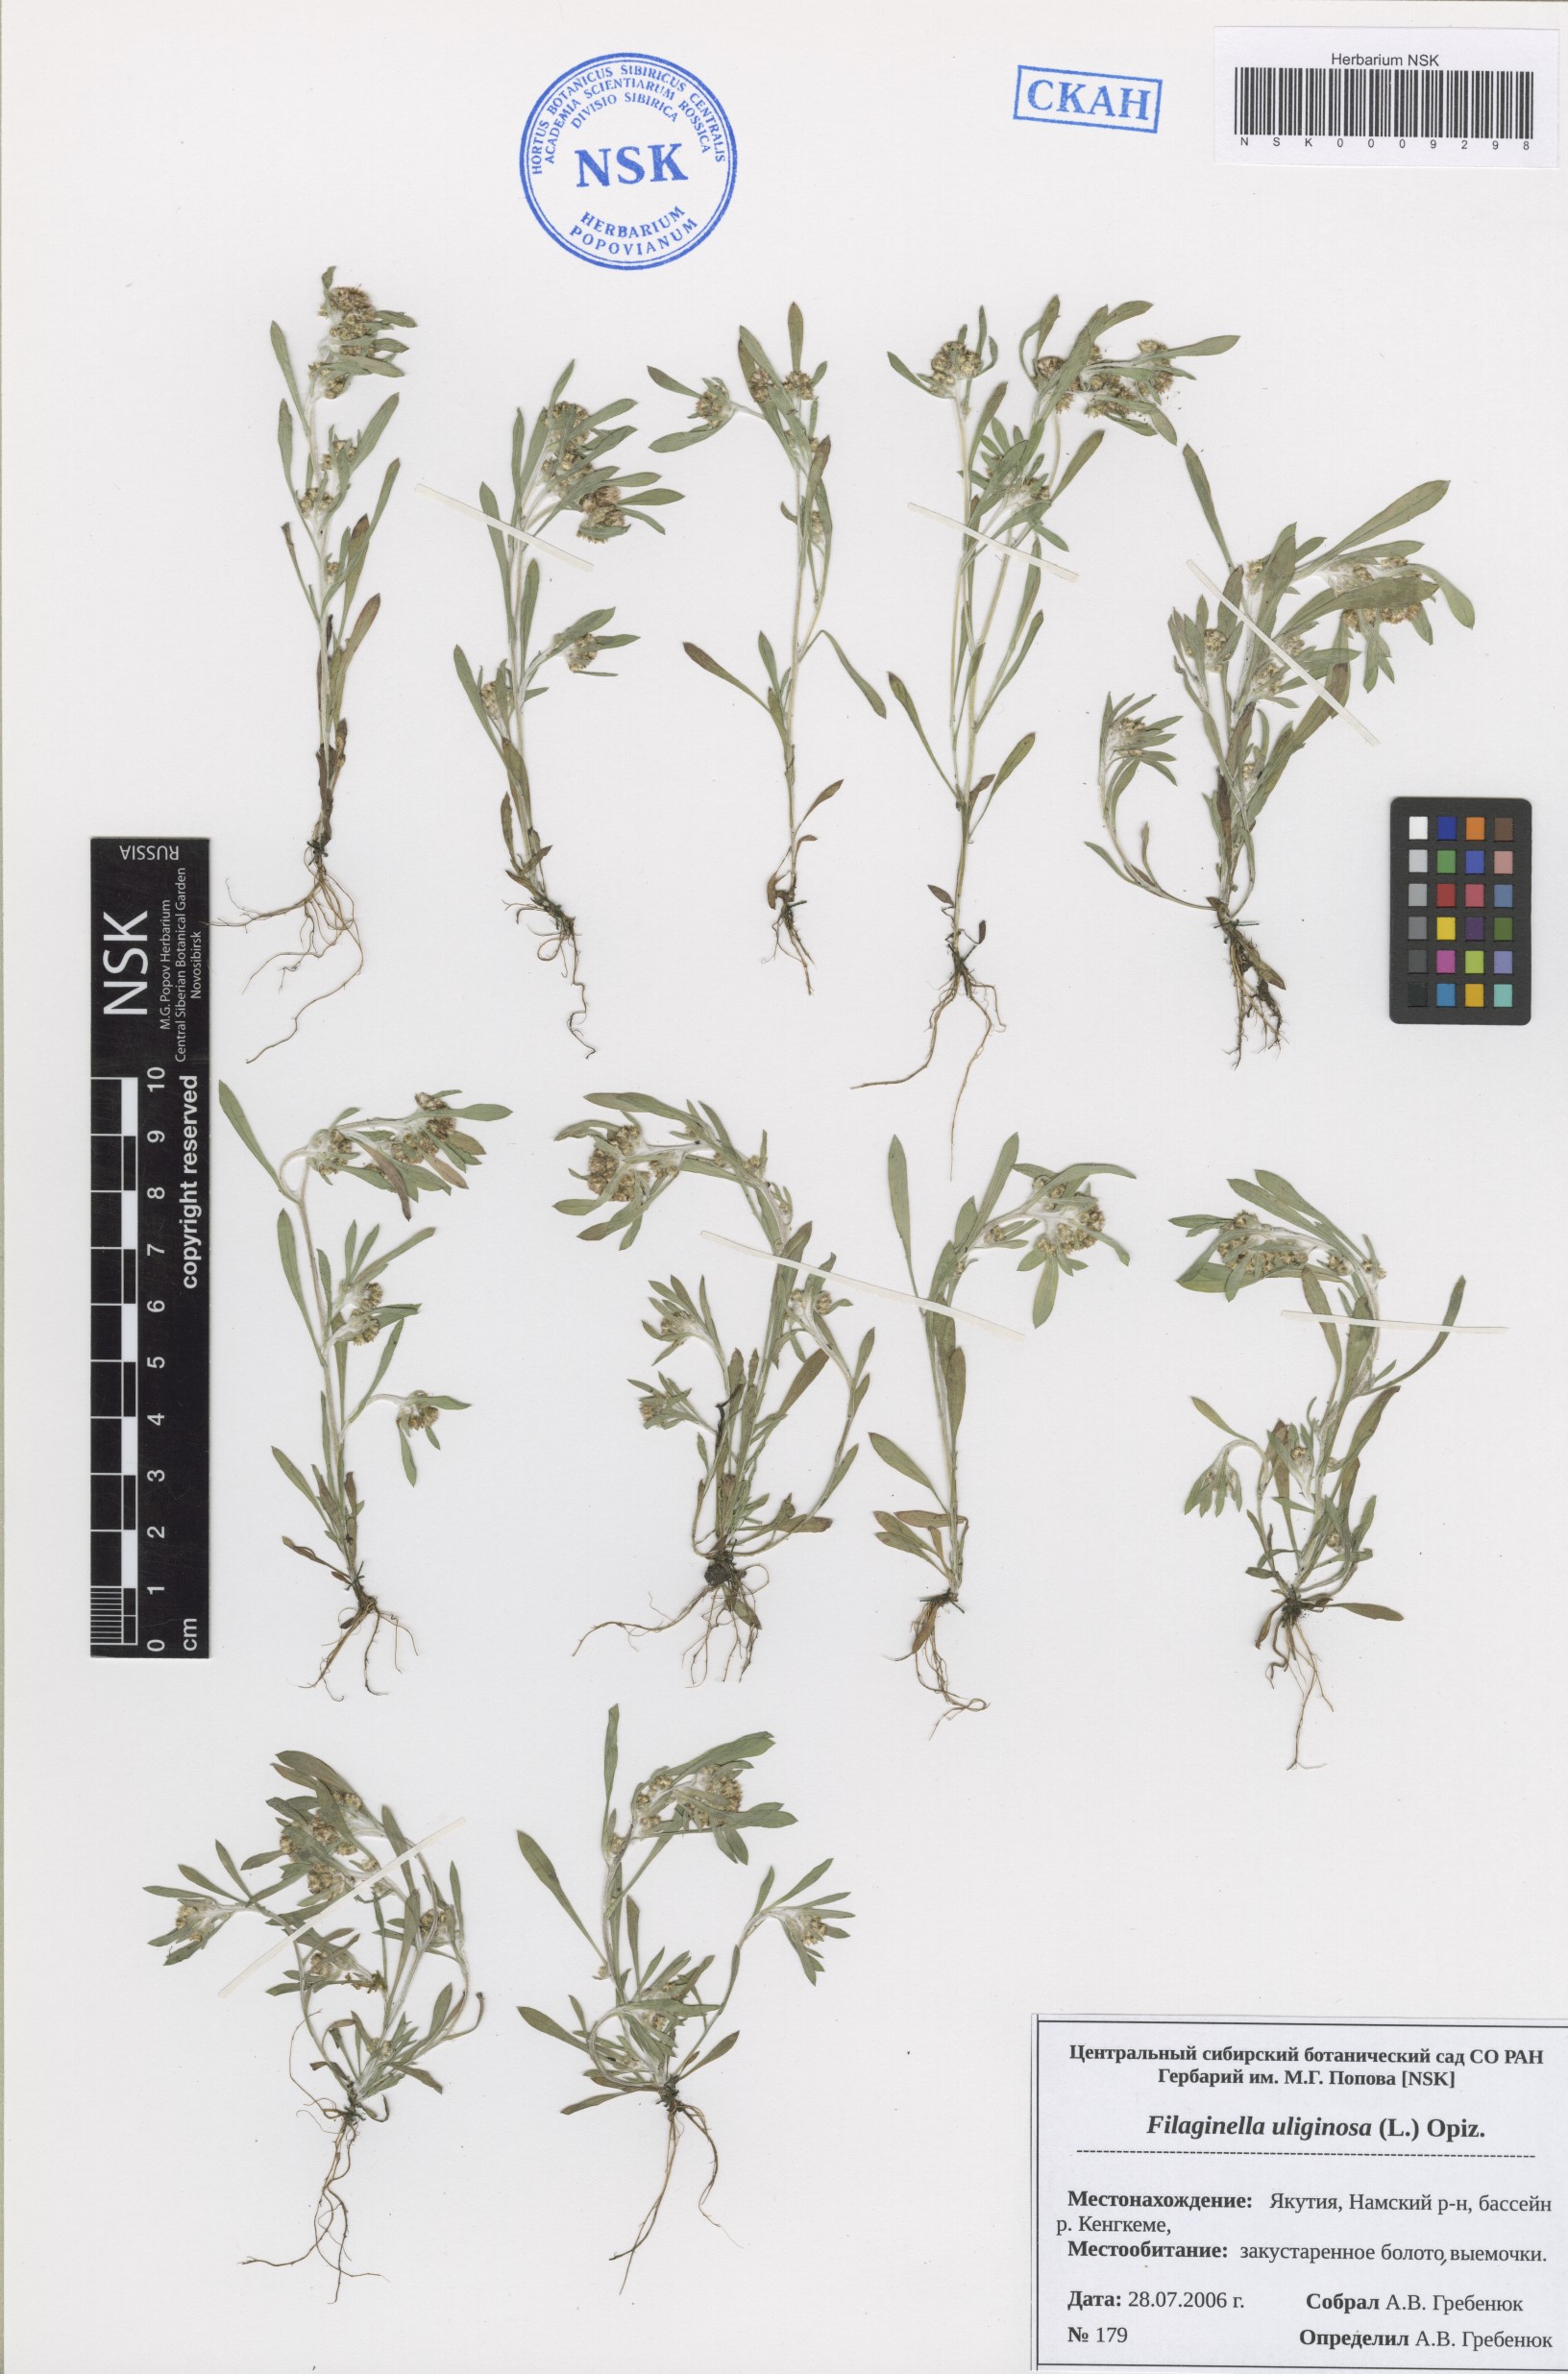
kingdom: Plantae
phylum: Tracheophyta
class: Magnoliopsida
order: Asterales
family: Asteraceae
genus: Gnaphalium
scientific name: Gnaphalium uliginosum
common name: Marsh cudweed
